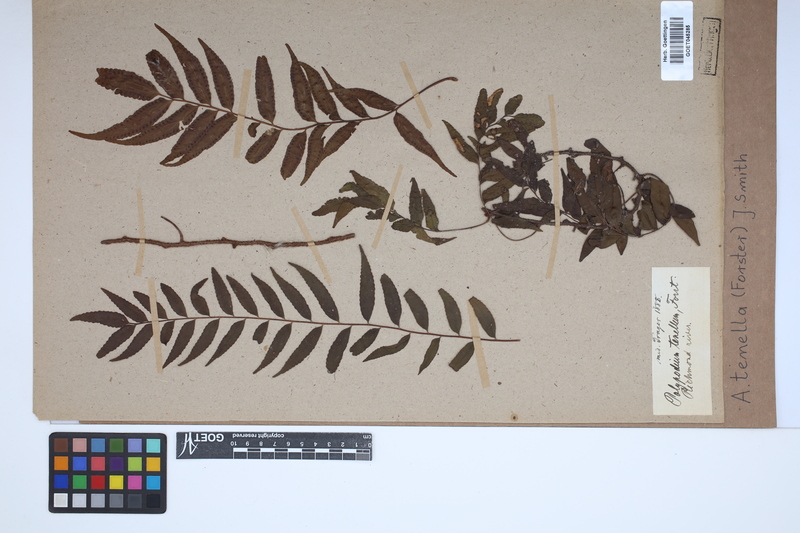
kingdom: Plantae
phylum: Tracheophyta
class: Polypodiopsida
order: Polypodiales
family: Tectariaceae
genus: Arthropteris
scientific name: Arthropteris tenella
